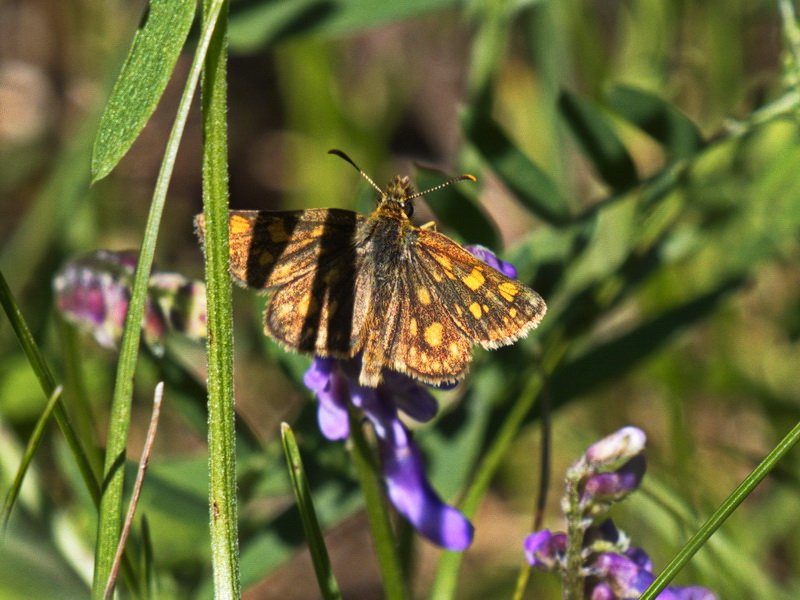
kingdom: Animalia
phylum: Arthropoda
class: Insecta
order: Lepidoptera
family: Hesperiidae
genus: Carterocephalus
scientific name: Carterocephalus palaemon
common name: Chequered Skipper
